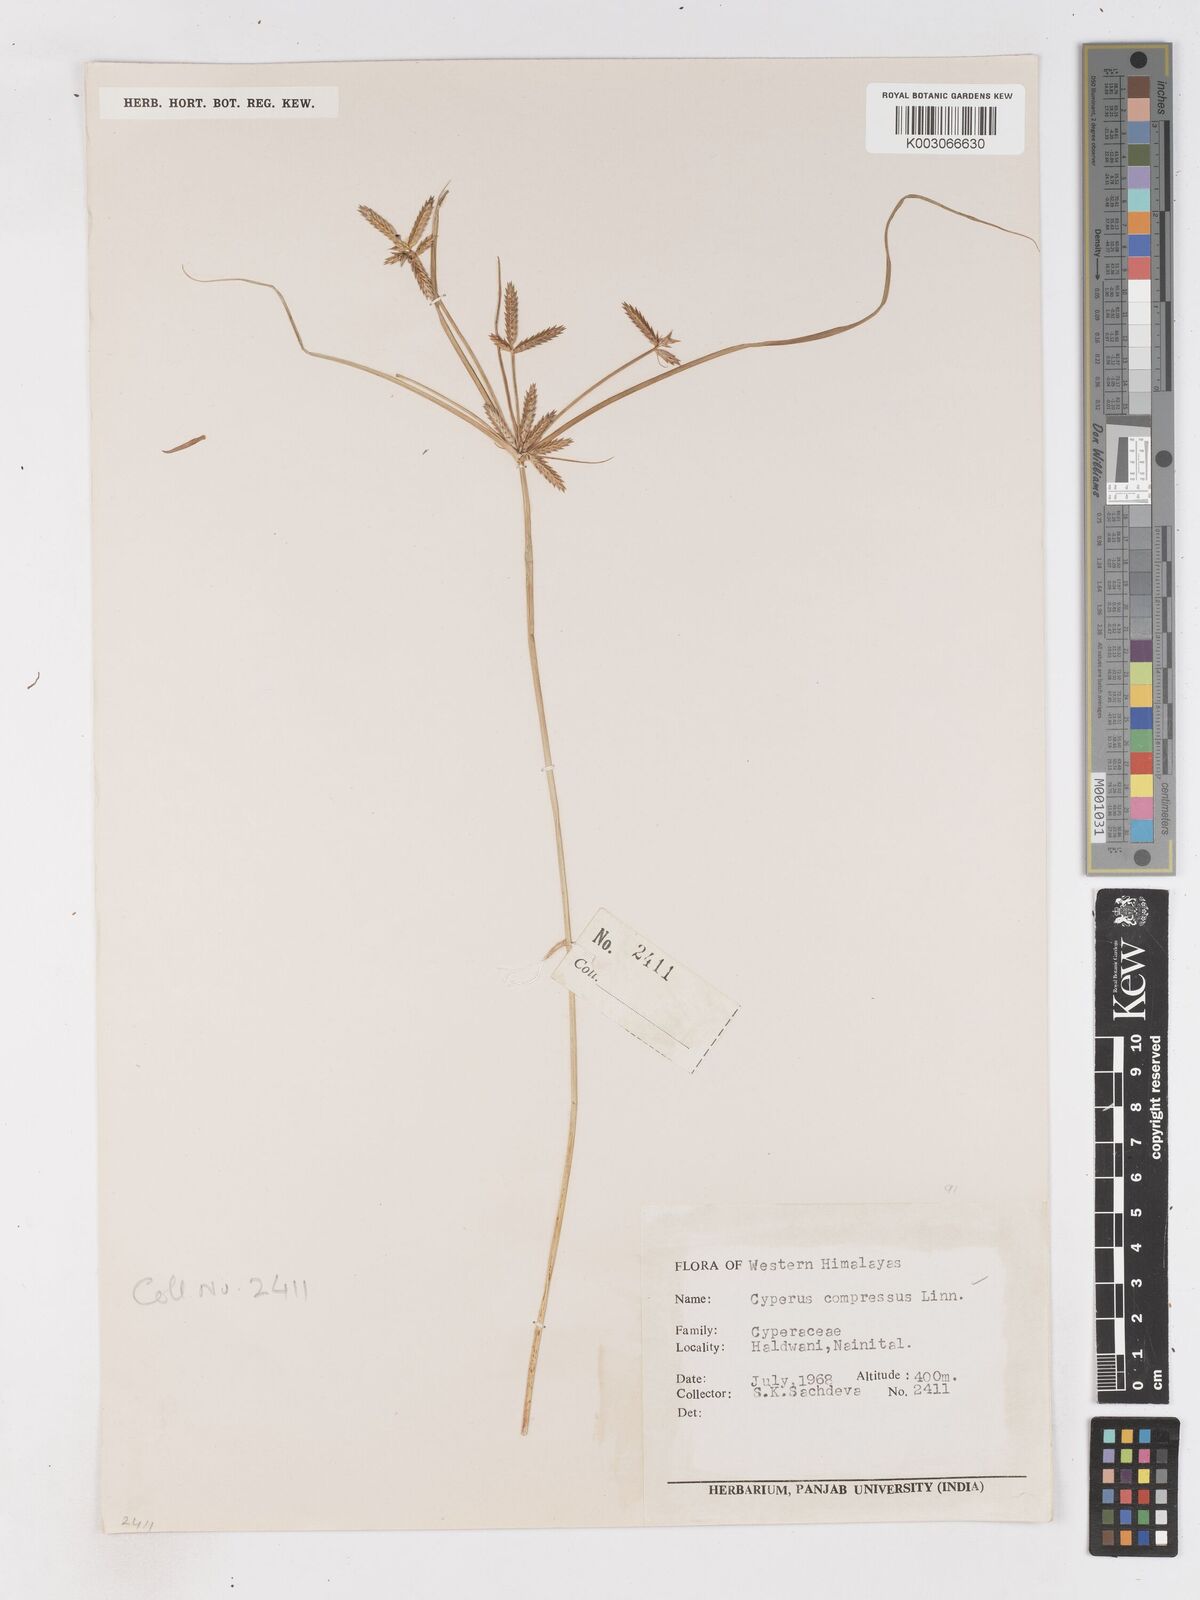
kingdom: Plantae
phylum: Tracheophyta
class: Liliopsida
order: Poales
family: Cyperaceae
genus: Cyperus
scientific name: Cyperus compressus
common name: Poorland flatsedge
